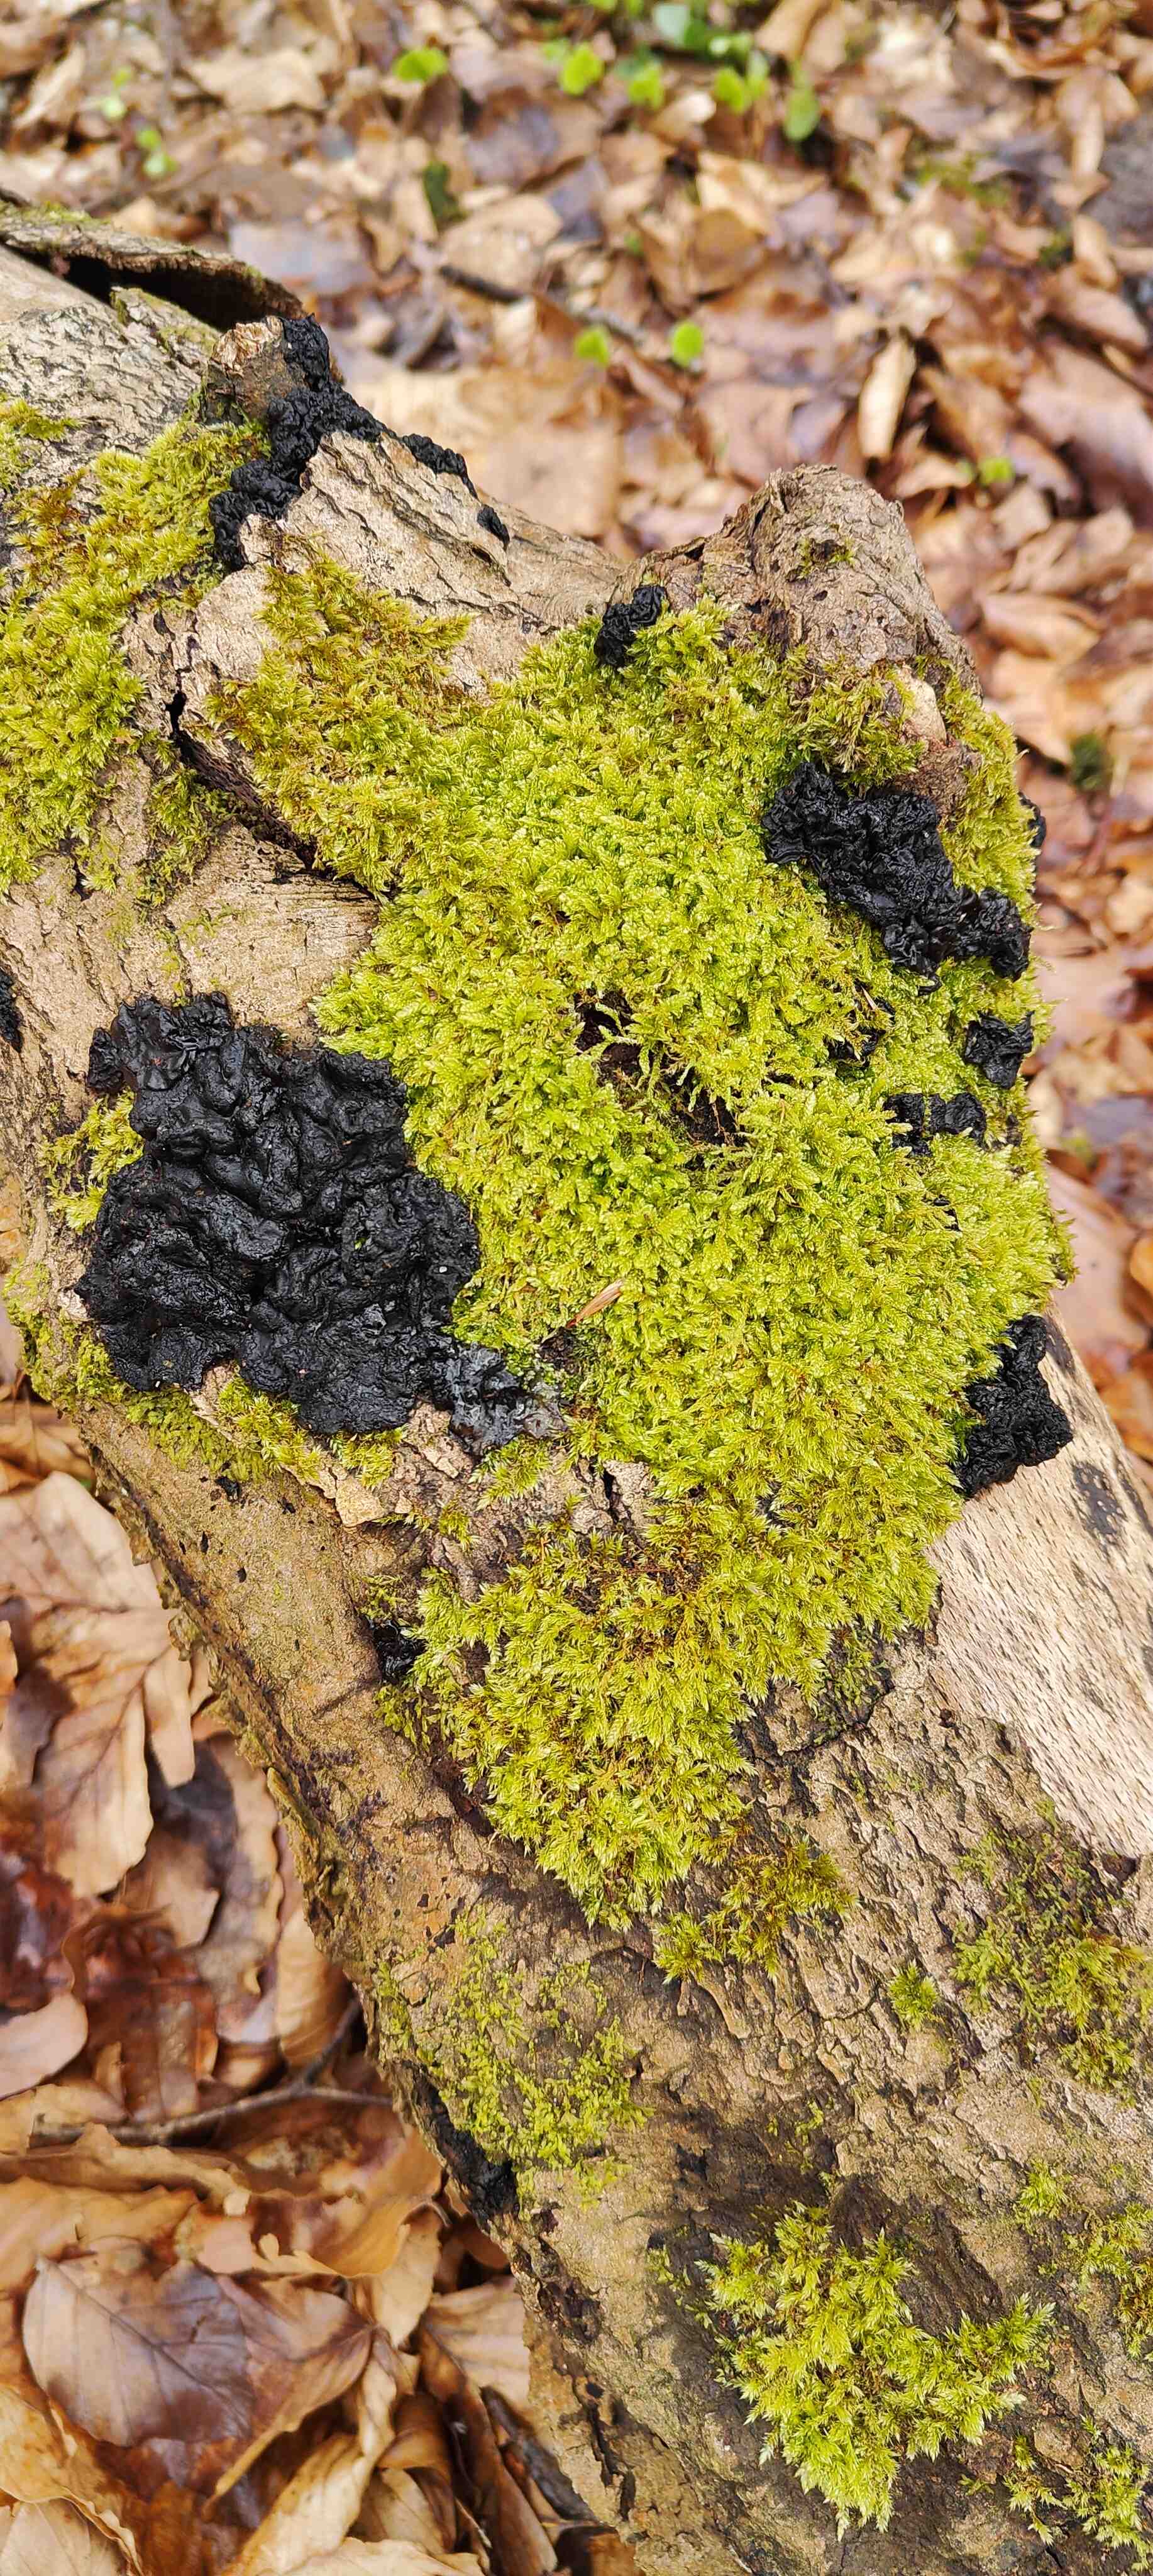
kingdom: Fungi
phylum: Basidiomycota
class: Agaricomycetes
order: Auriculariales
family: Auriculariaceae
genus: Exidia
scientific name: Exidia nigricans
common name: almindelig bævretop
